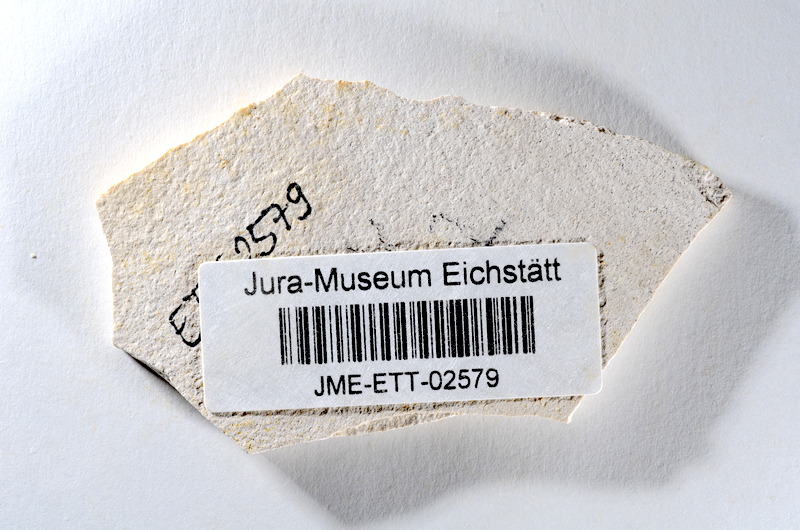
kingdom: Animalia
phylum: Chordata
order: Salmoniformes
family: Orthogonikleithridae
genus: Orthogonikleithrus
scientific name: Orthogonikleithrus hoelli
